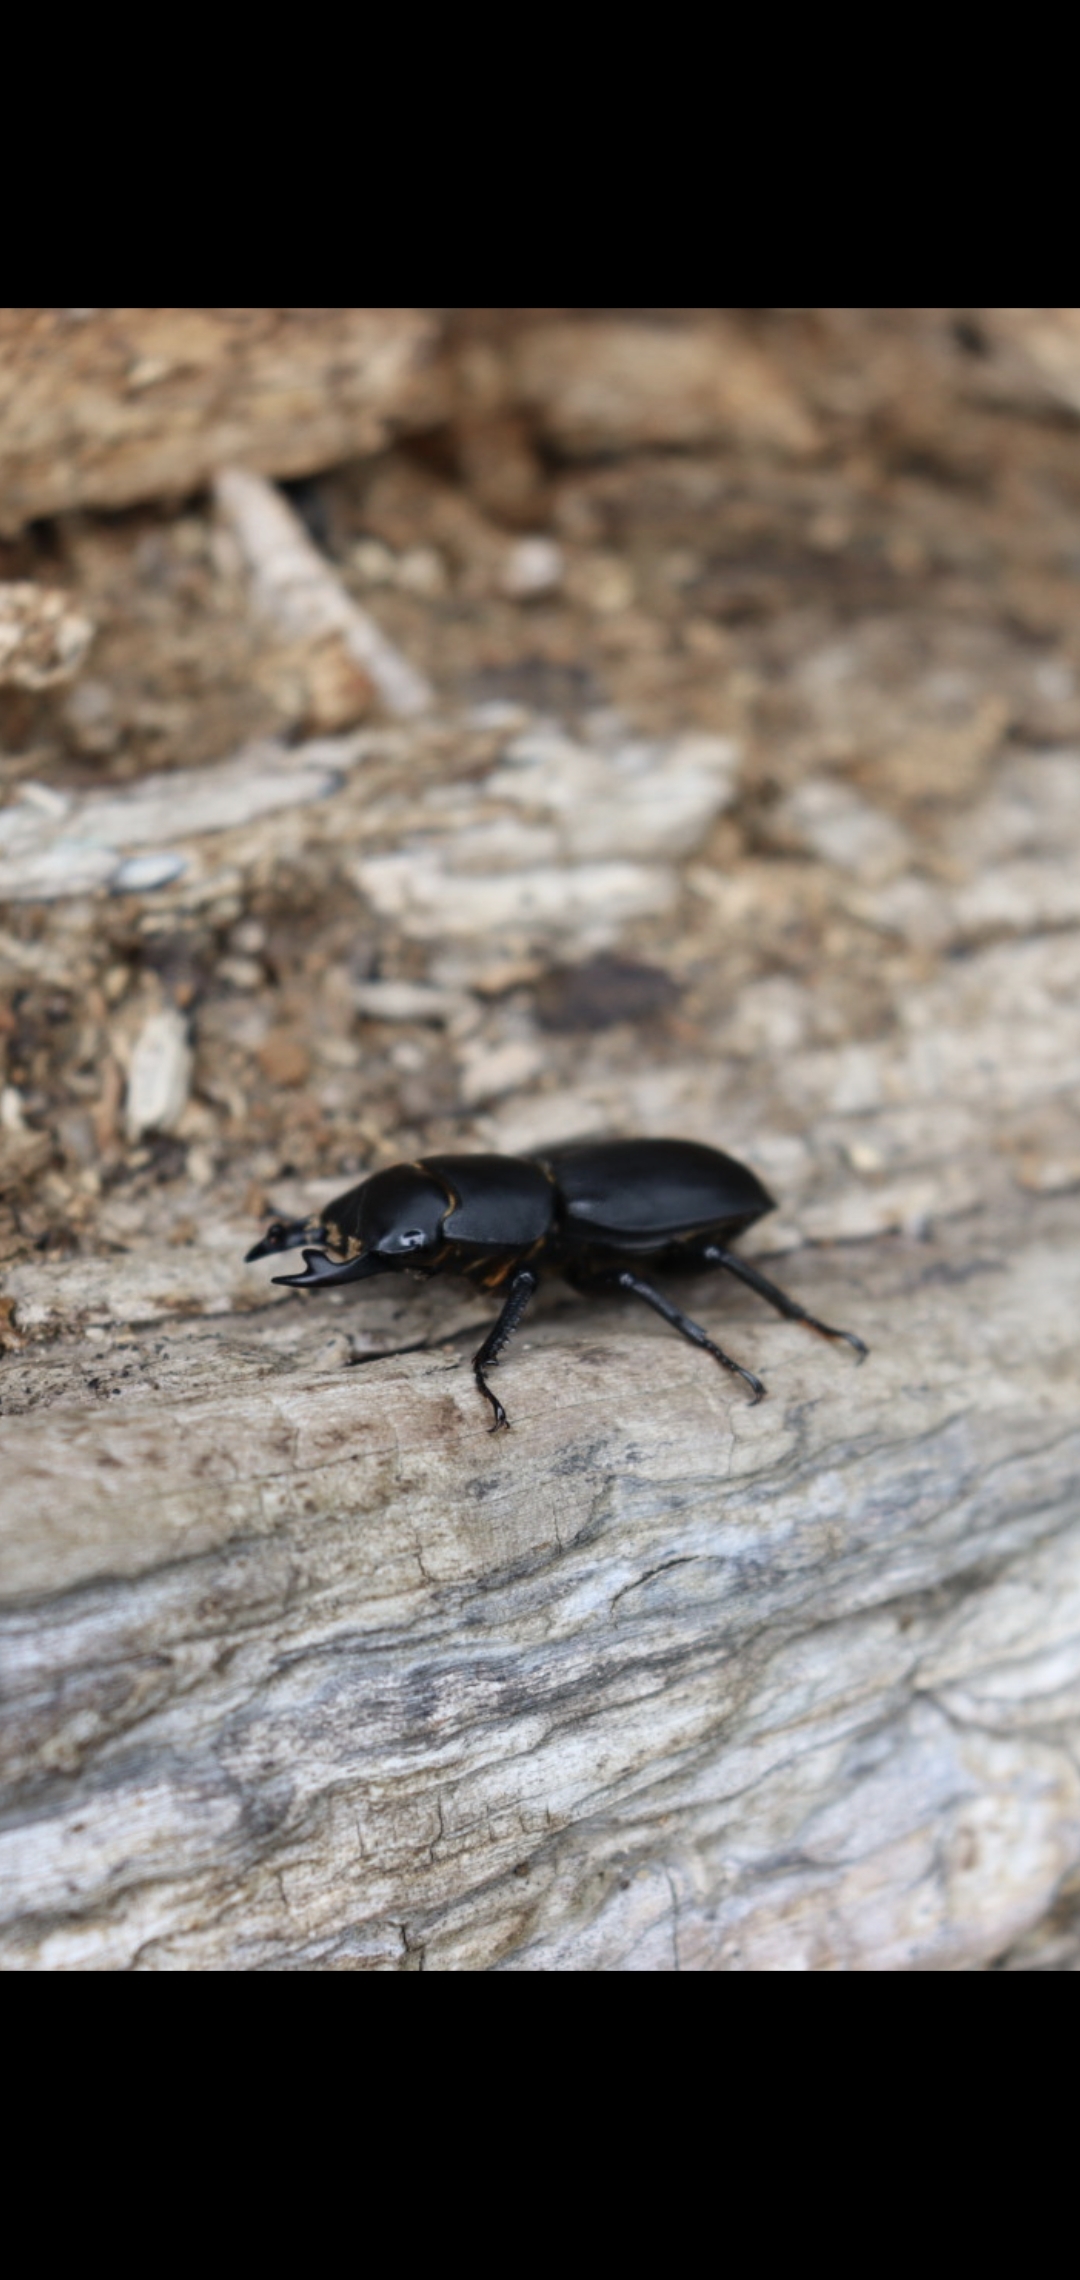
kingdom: Animalia
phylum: Arthropoda
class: Insecta
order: Coleoptera
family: Lucanidae
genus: Dorcus
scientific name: Dorcus parallelipipedus
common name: Bøghjort
